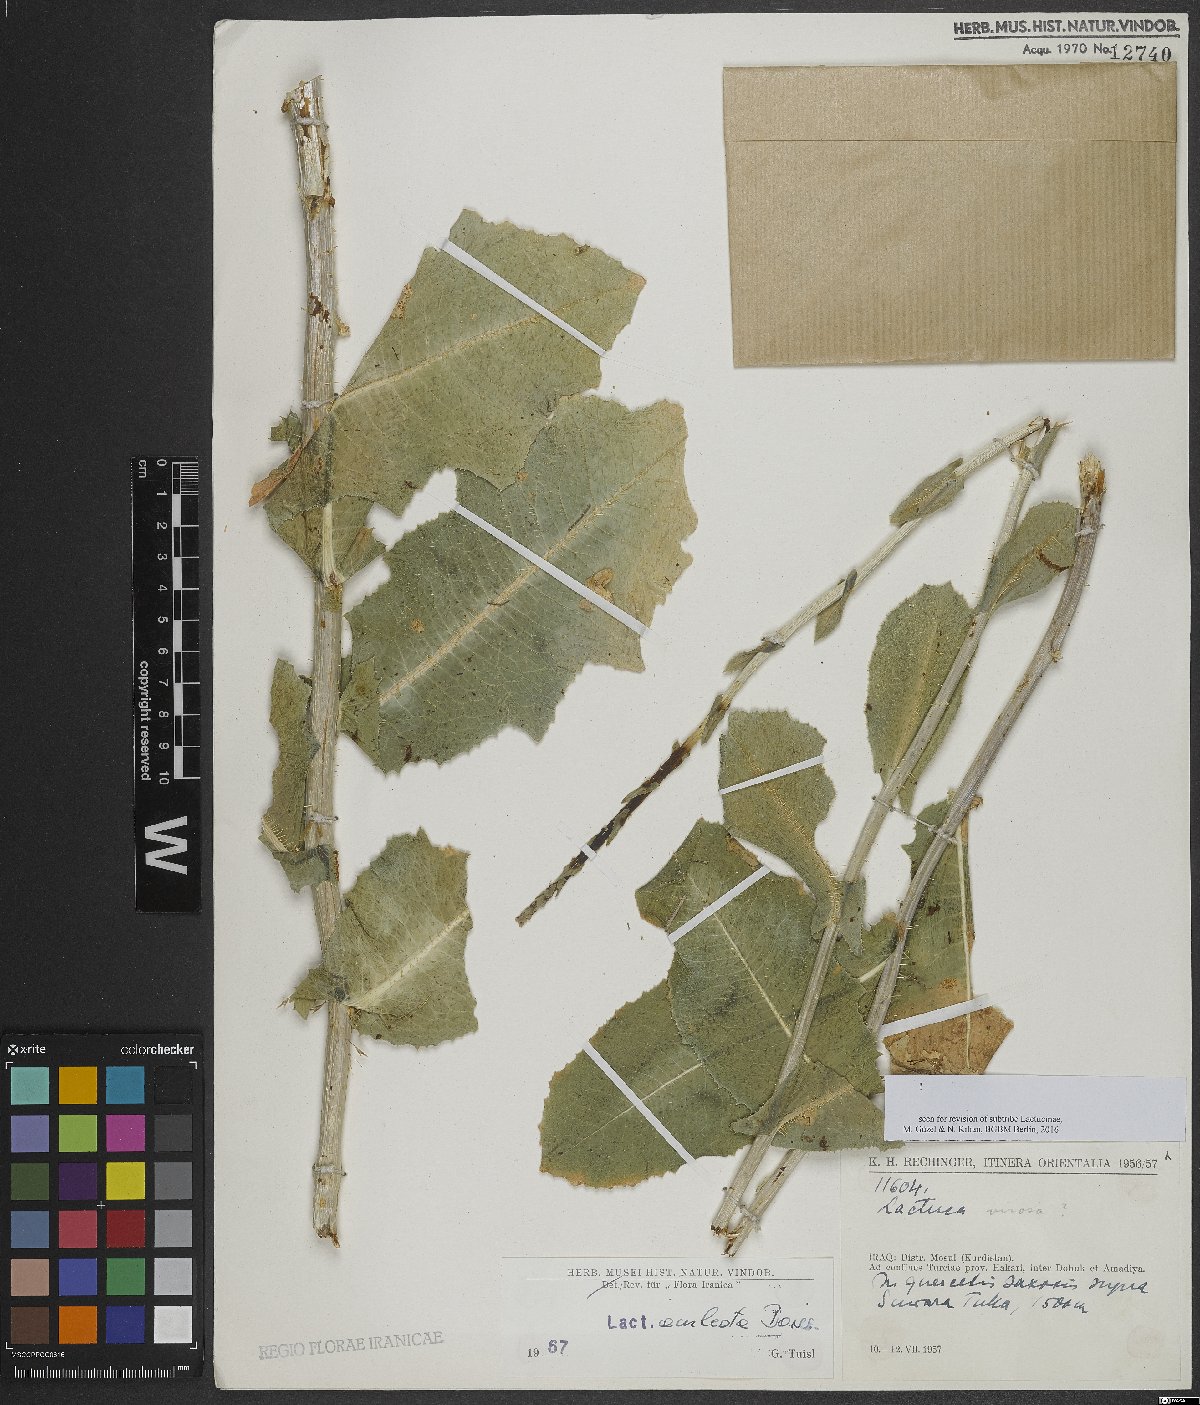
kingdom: Plantae
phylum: Tracheophyta
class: Magnoliopsida
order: Asterales
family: Asteraceae
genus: Lactuca
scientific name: Lactuca aculeata
